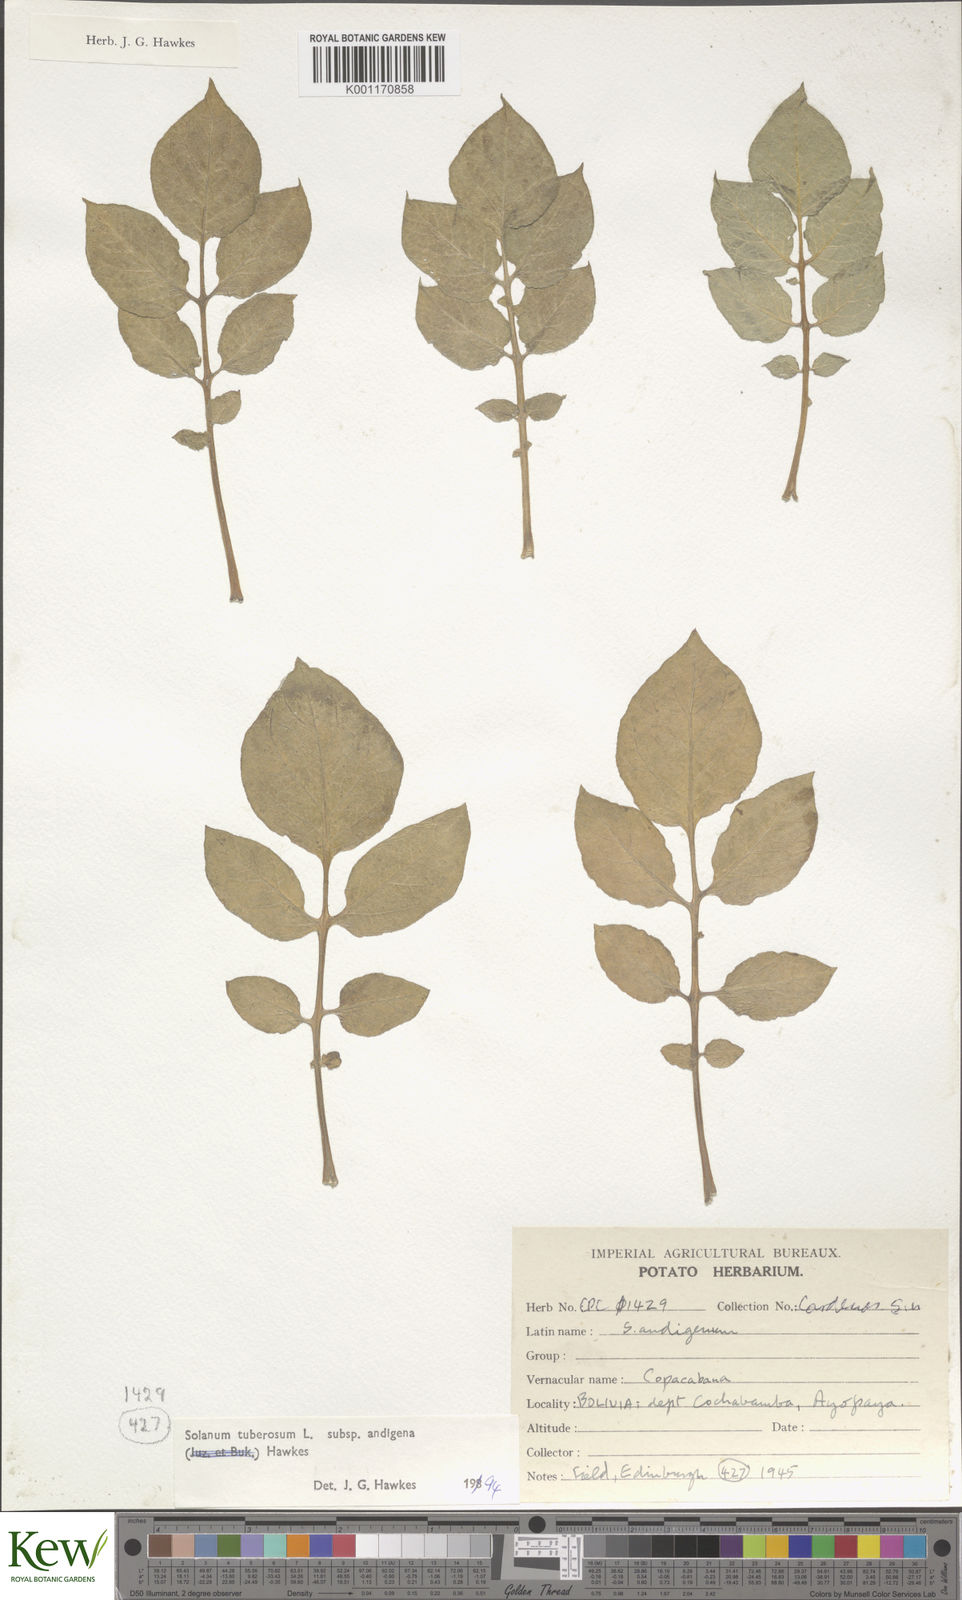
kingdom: Plantae
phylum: Tracheophyta
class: Magnoliopsida
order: Solanales
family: Solanaceae
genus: Solanum
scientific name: Solanum tuberosum
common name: Potato
